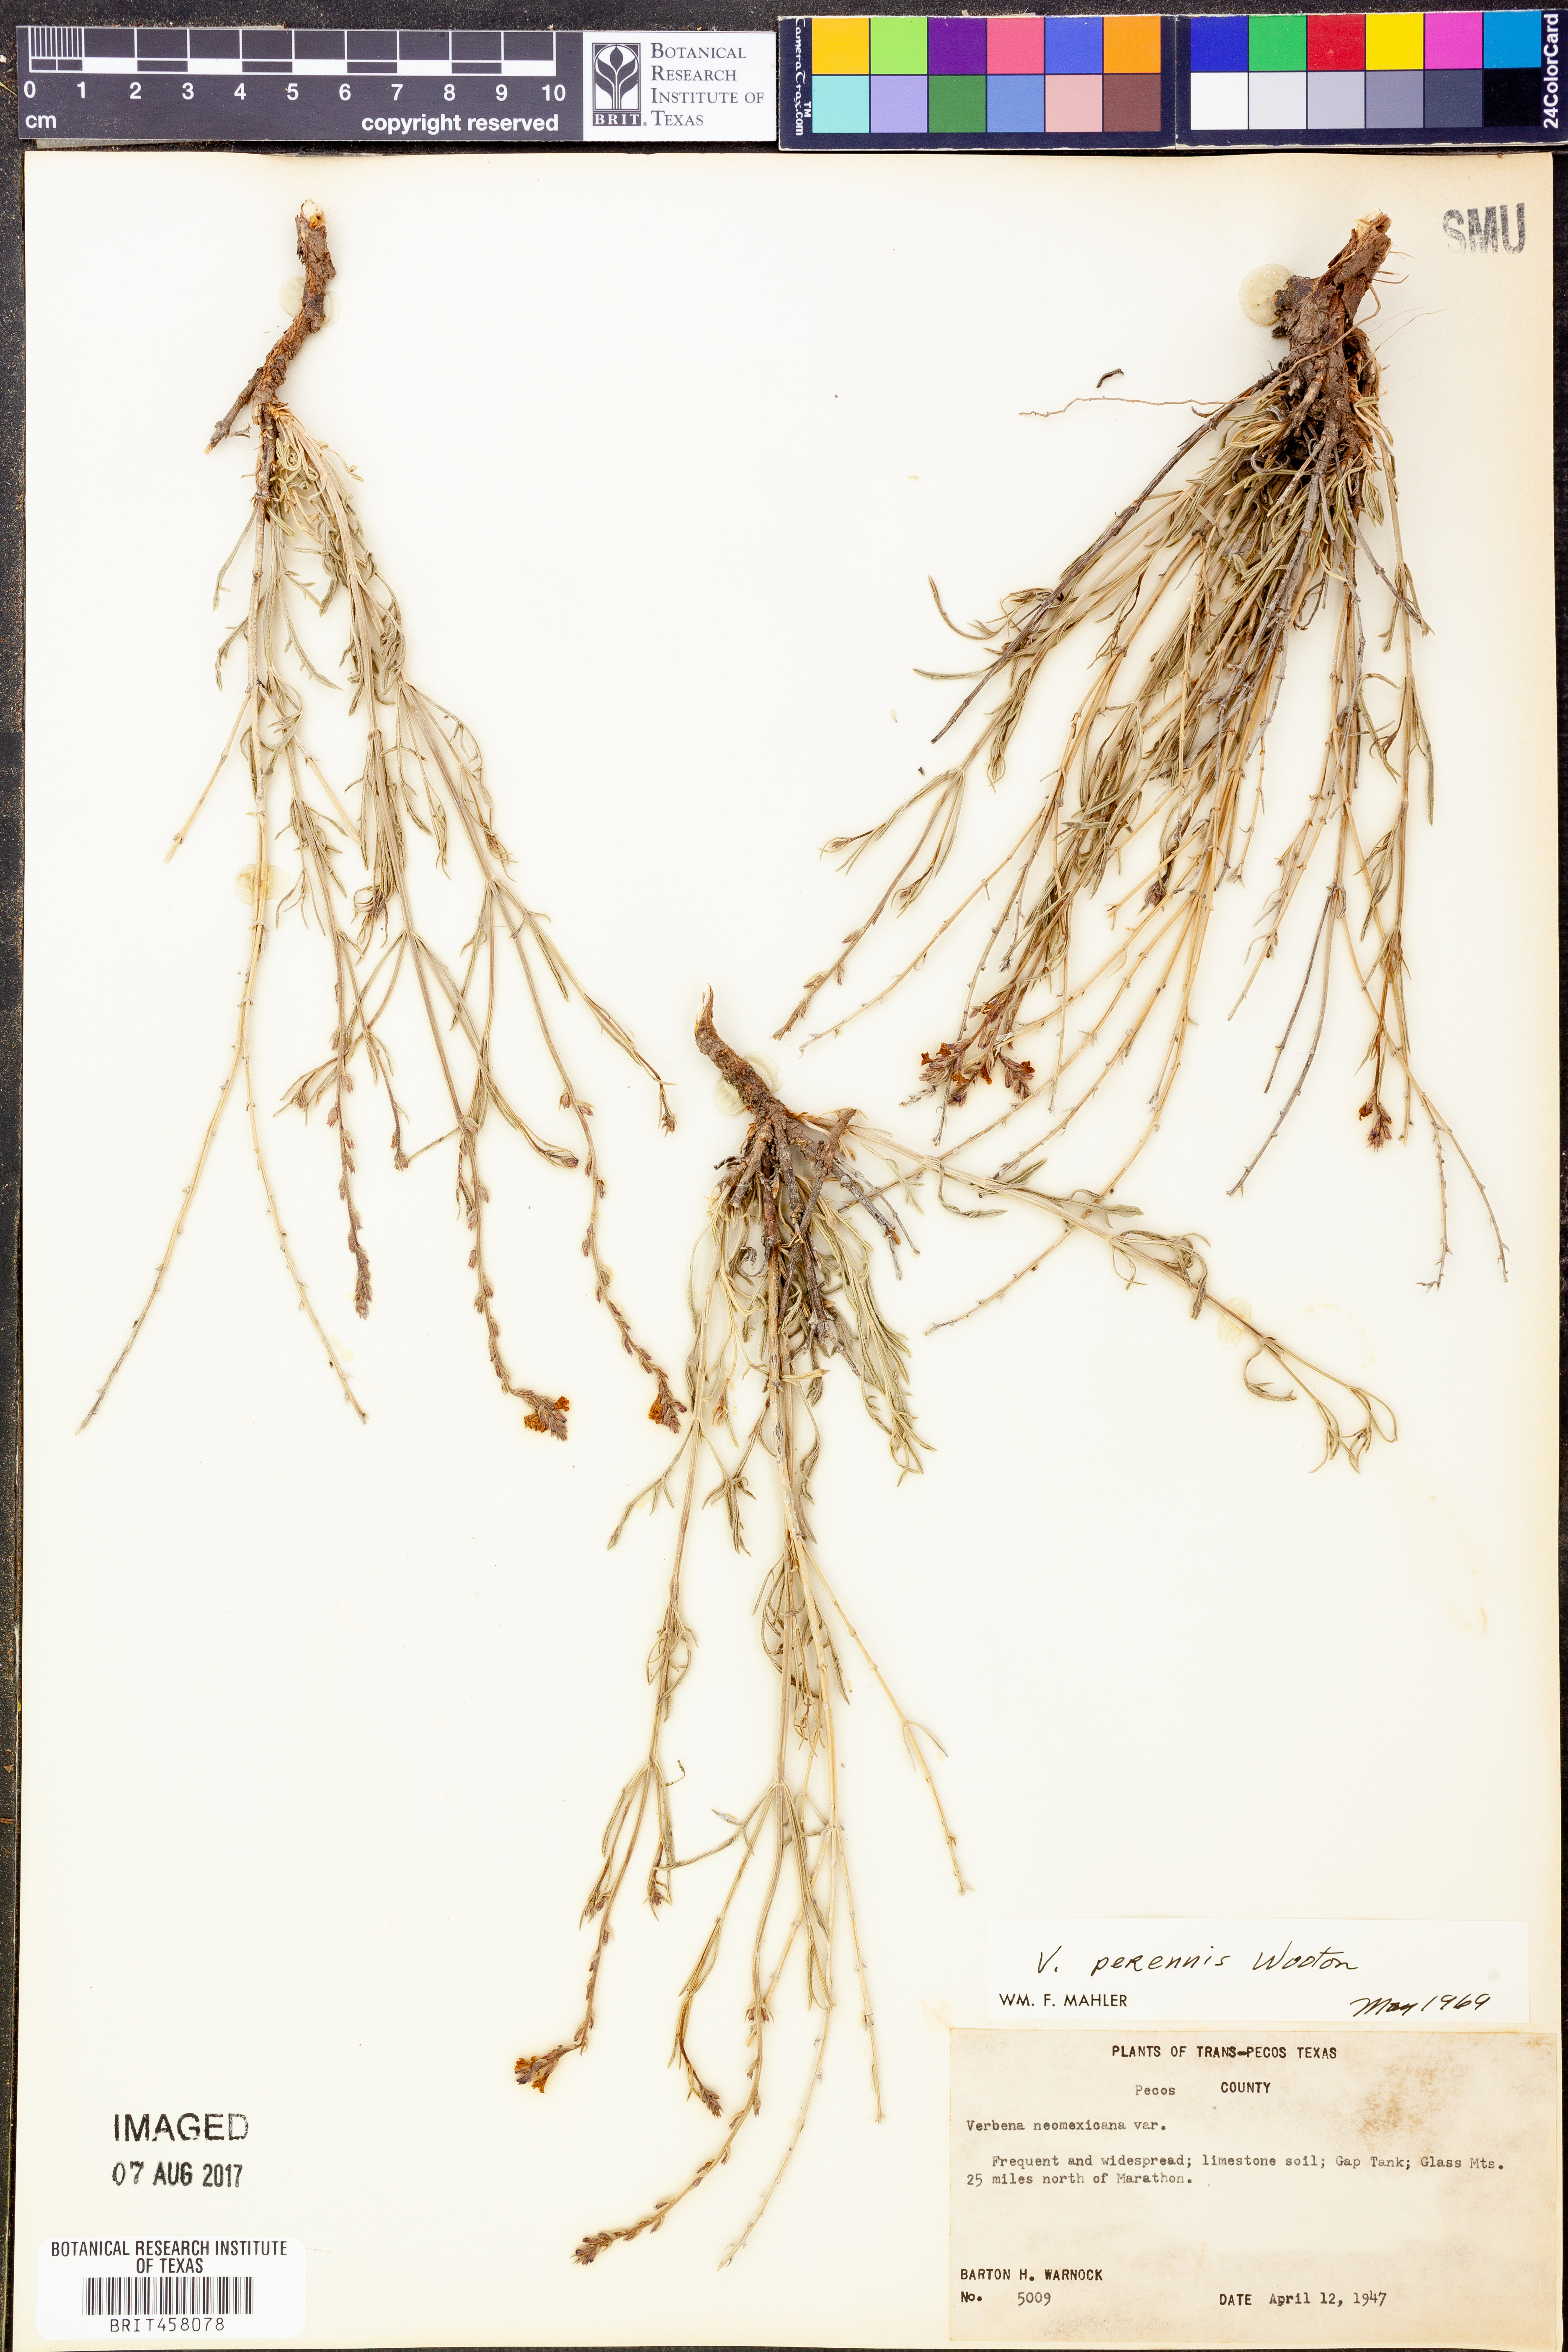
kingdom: Plantae
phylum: Tracheophyta
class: Magnoliopsida
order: Lamiales
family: Verbenaceae
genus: Verbena
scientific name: Verbena perennis
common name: Pin-leaf vervain
